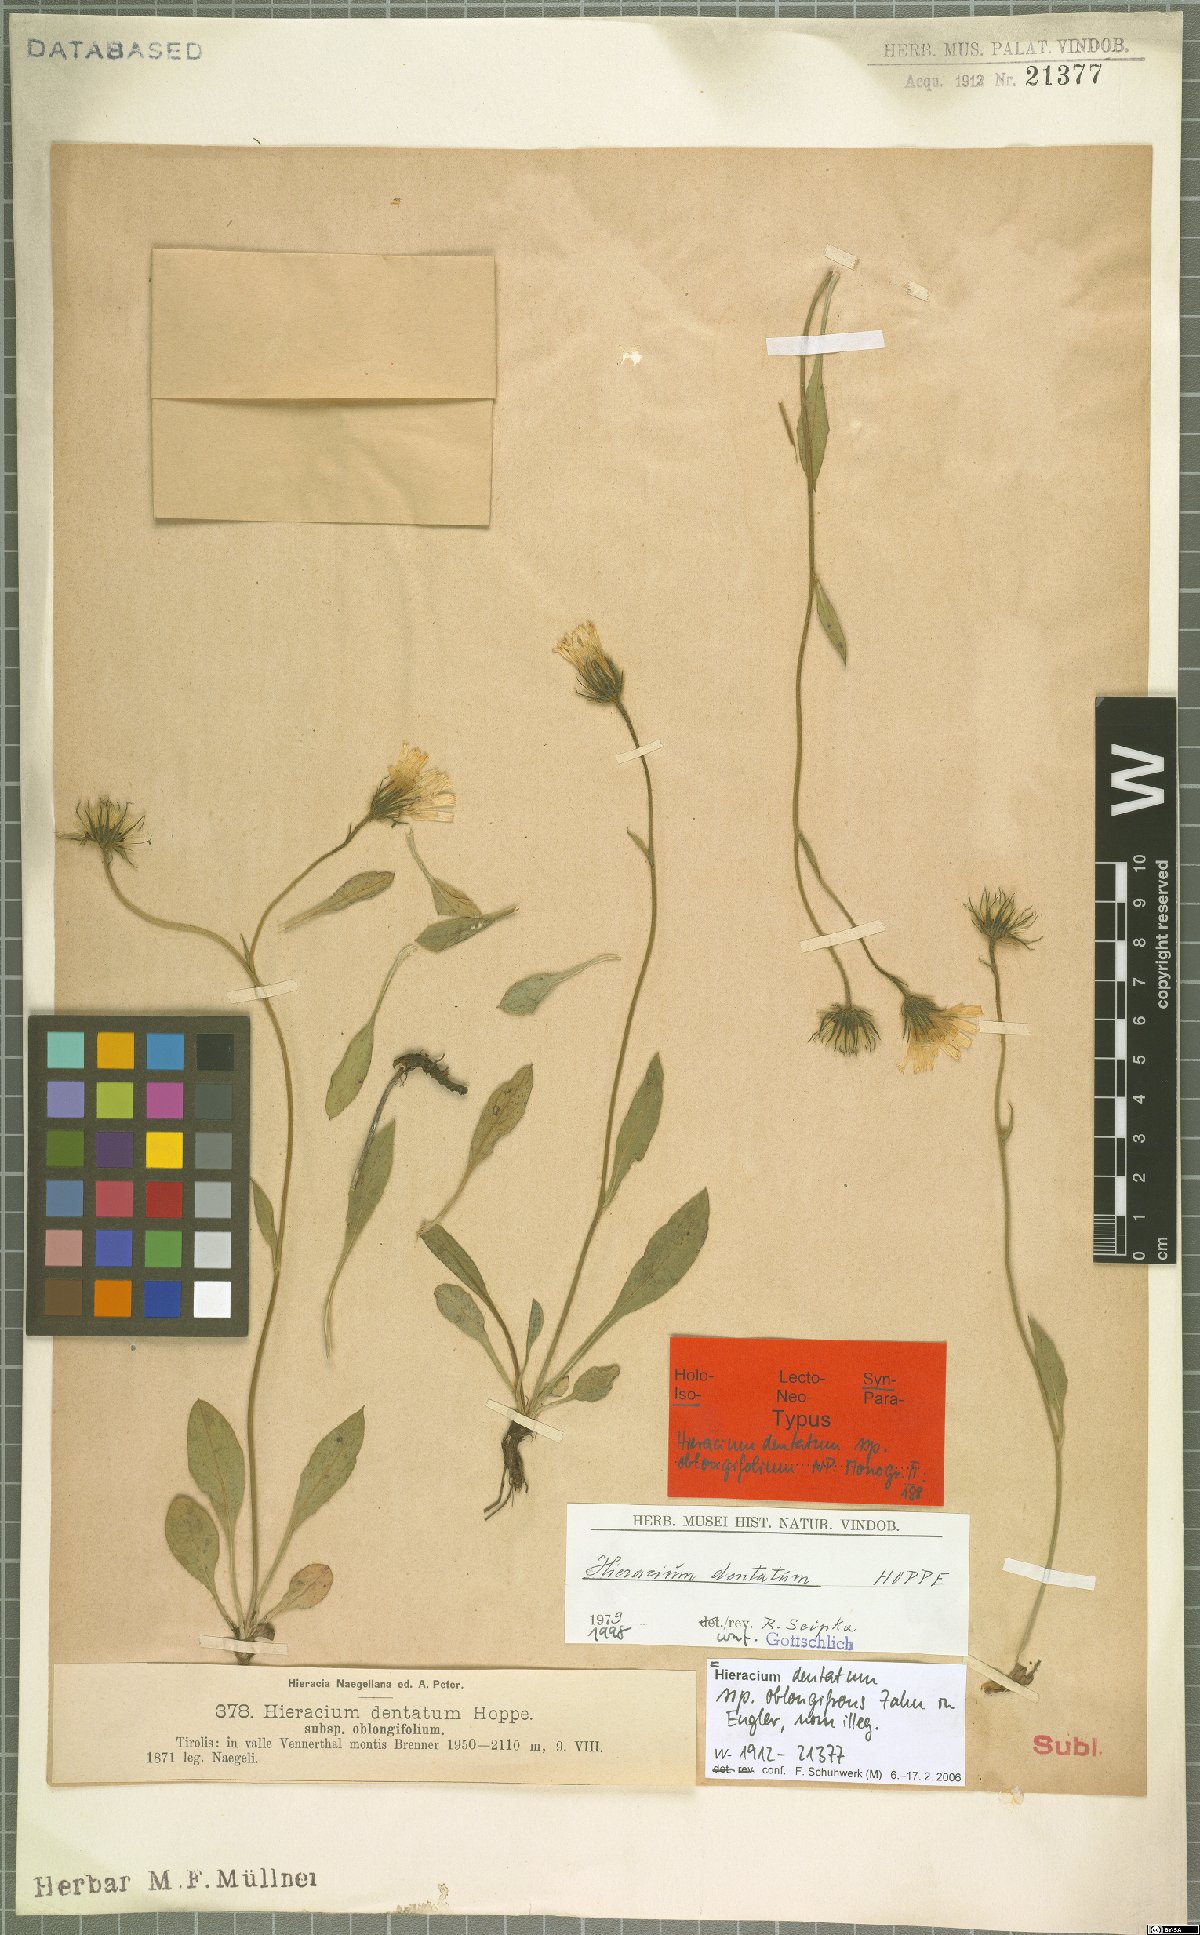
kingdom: Plantae
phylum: Tracheophyta
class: Magnoliopsida
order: Asterales
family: Asteraceae
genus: Hieracium
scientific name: Hieracium dentatum
